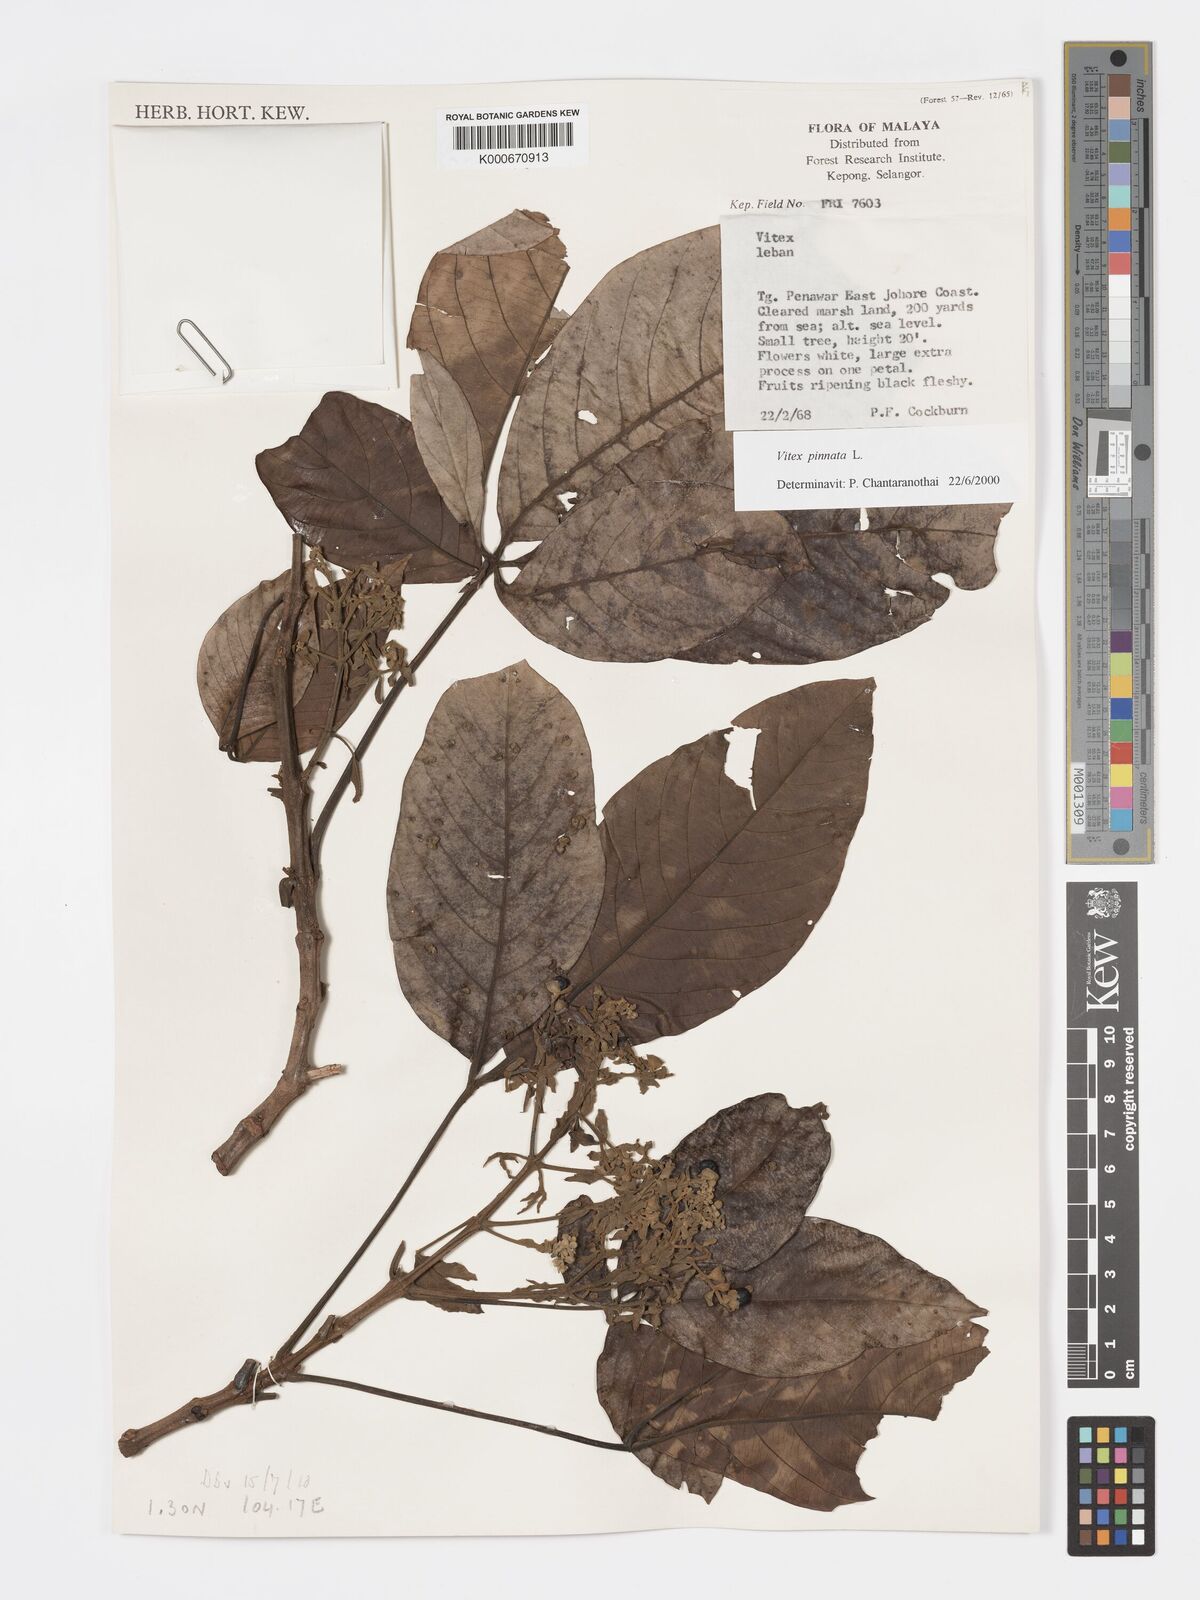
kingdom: Plantae
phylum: Tracheophyta
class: Magnoliopsida
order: Lamiales
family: Lamiaceae
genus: Vitex
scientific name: Vitex pinnata
